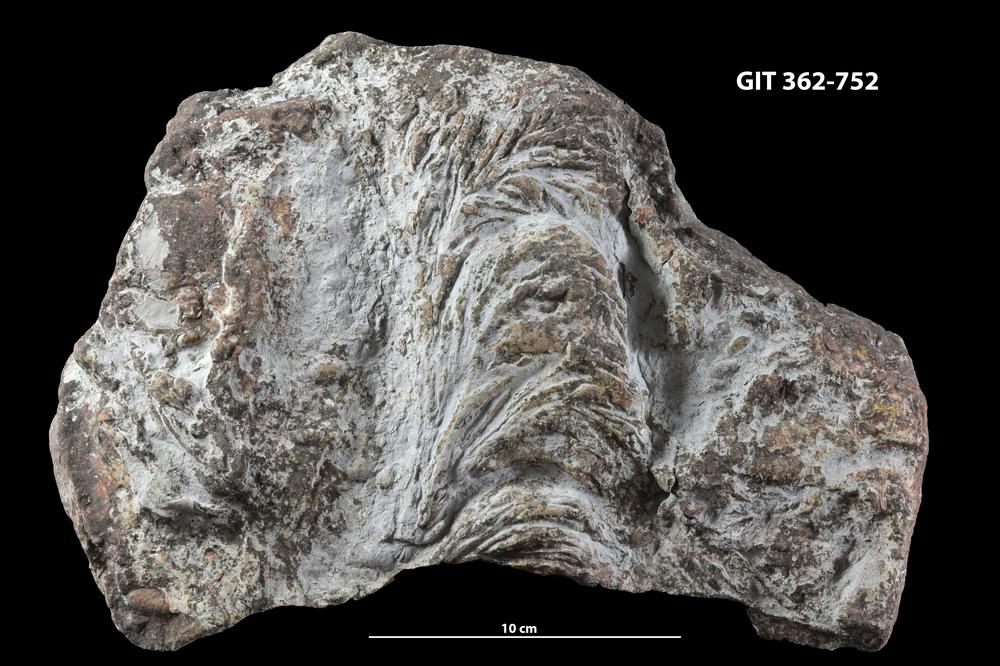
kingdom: Chromista
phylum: Ochrophyta
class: Phaeophyceae
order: Laminariales
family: Laminariaceae
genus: Postelsiopsis
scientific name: Postelsiopsis
